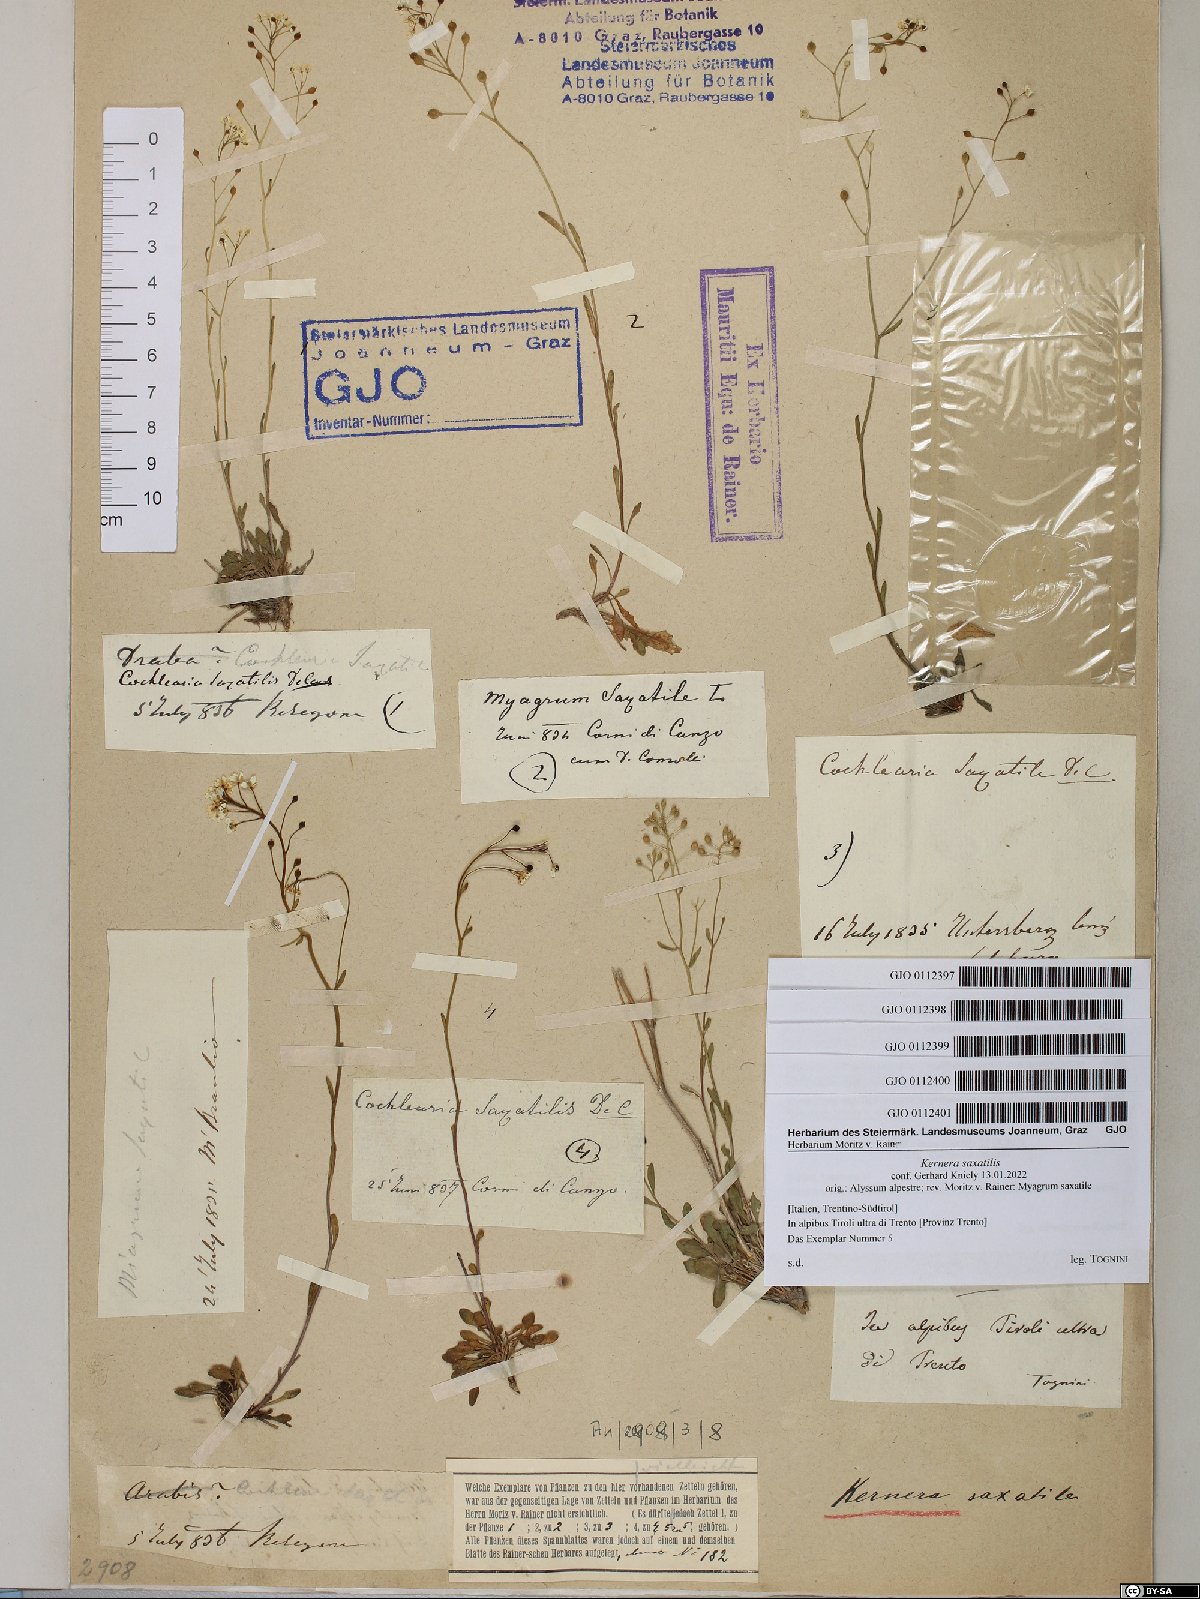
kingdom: Plantae
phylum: Tracheophyta
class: Magnoliopsida
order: Brassicales
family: Brassicaceae
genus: Kernera
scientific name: Kernera saxatilis
